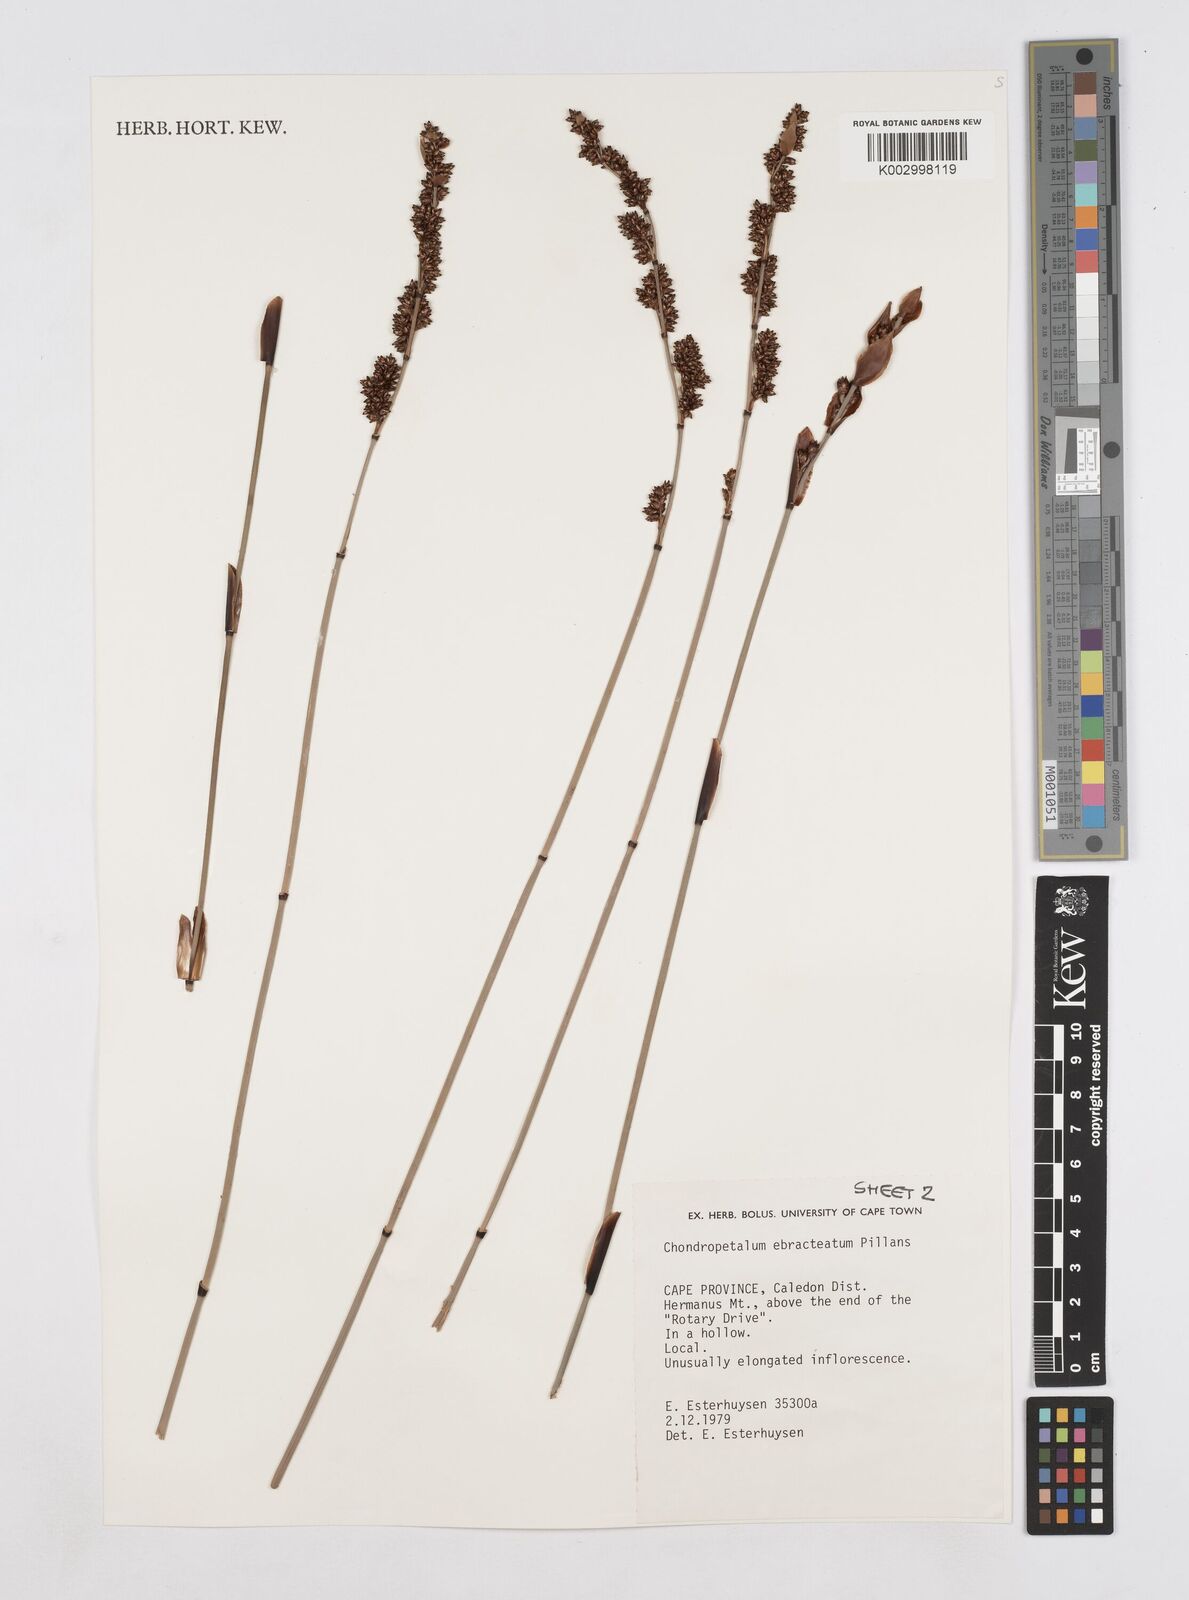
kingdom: Plantae
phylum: Tracheophyta
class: Liliopsida
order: Poales
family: Restionaceae
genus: Elegia
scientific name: Elegia ebracteata
